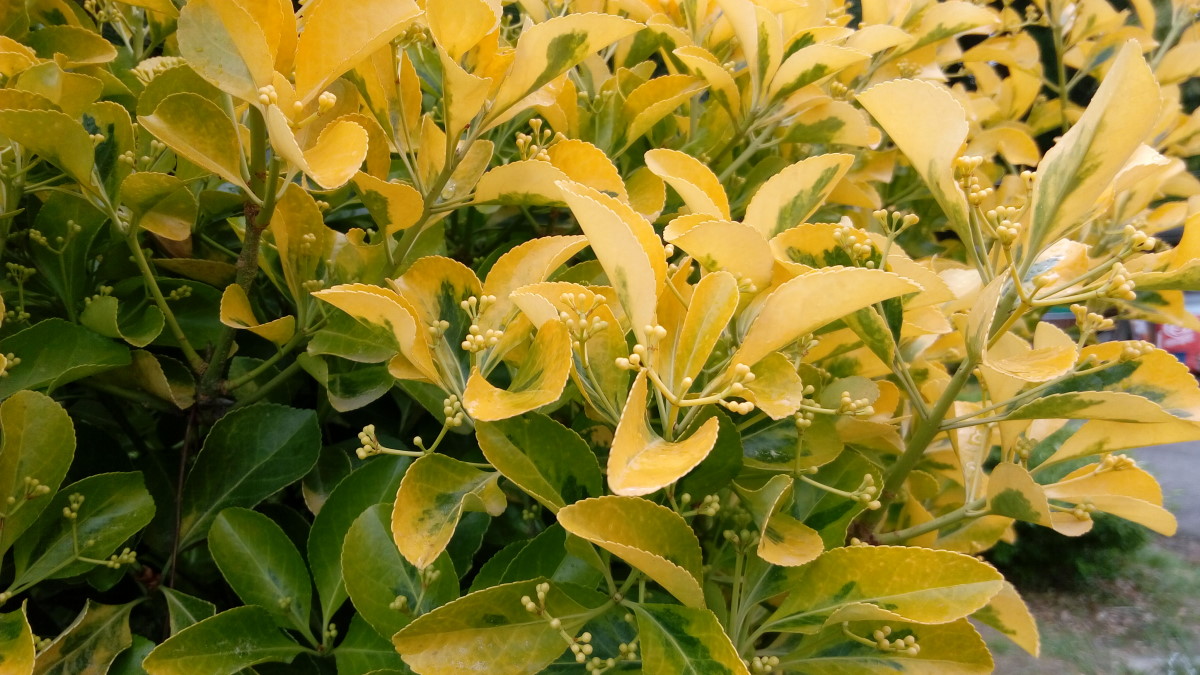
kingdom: Plantae
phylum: Tracheophyta
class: Magnoliopsida
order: Celastrales
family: Celastraceae
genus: Euonymus
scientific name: Euonymus
